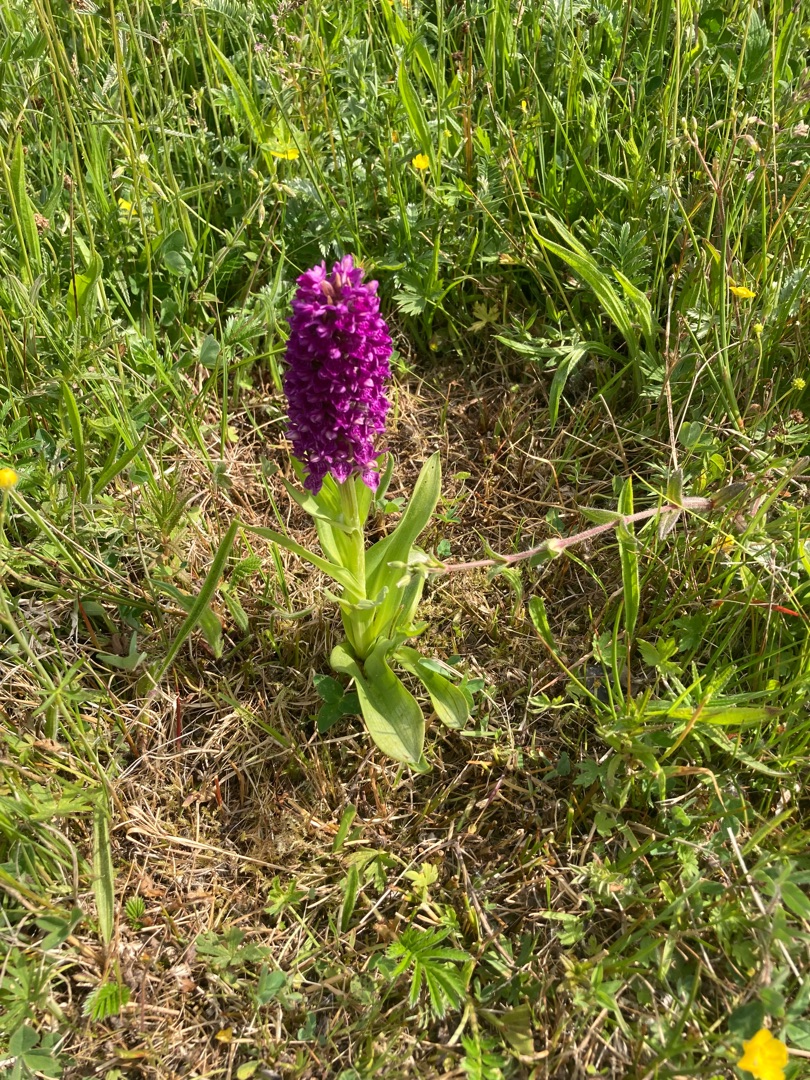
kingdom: Plantae
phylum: Tracheophyta
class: Liliopsida
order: Asparagales
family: Orchidaceae
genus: Dactylorhiza
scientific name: Dactylorhiza majalis
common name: Purpur-gøgeurt
